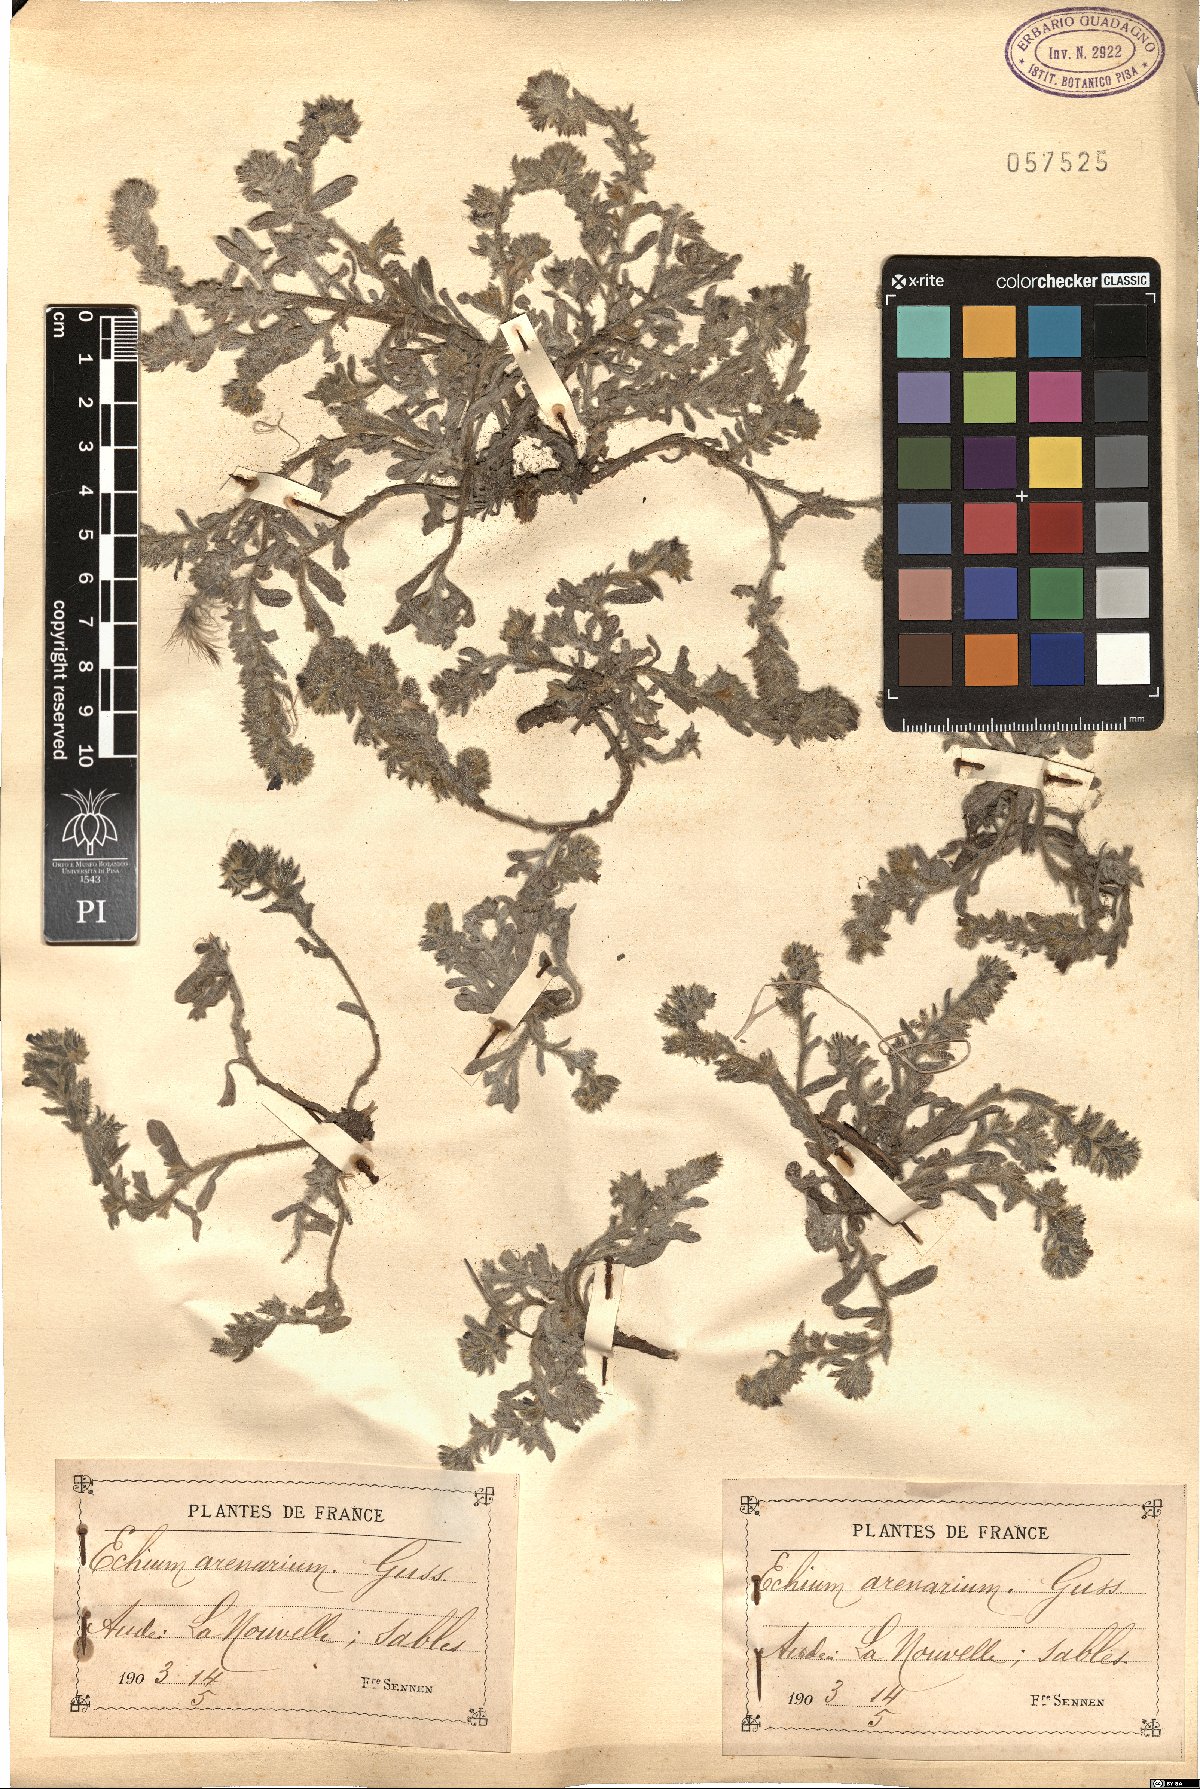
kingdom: Plantae
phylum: Tracheophyta
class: Magnoliopsida
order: Boraginales
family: Boraginaceae
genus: Echium
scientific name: Echium arenarium
